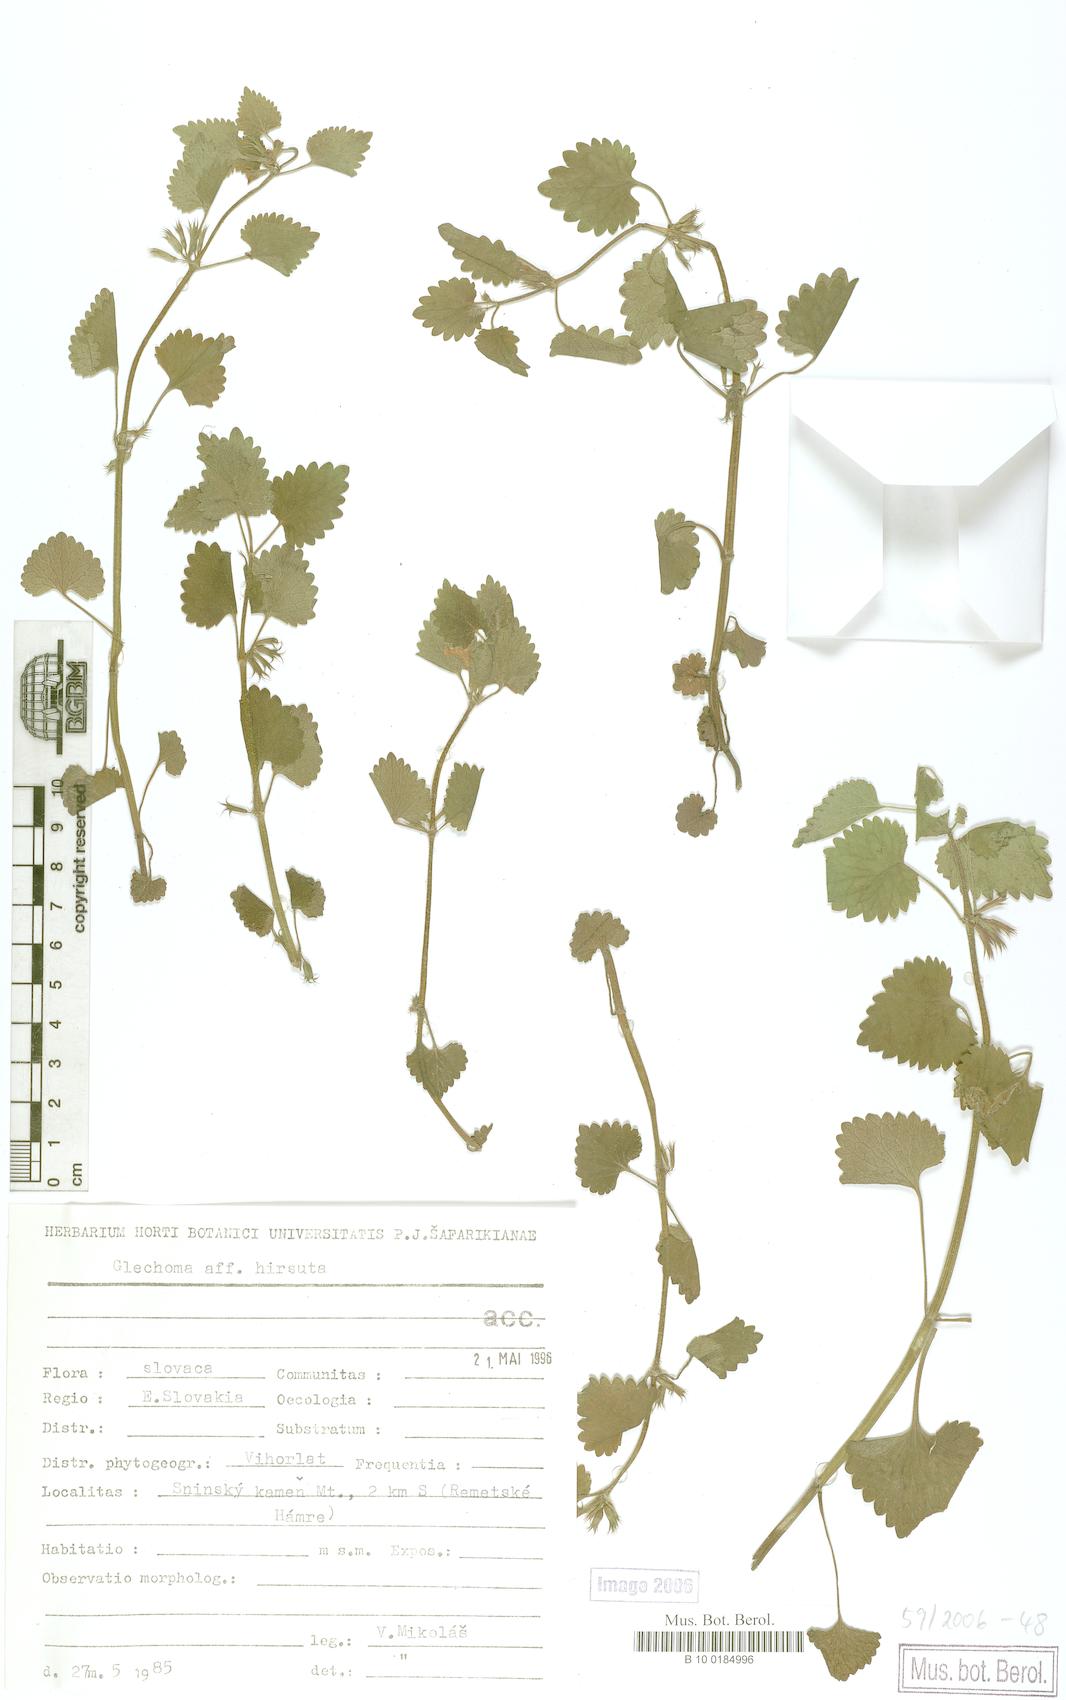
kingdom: Plantae
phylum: Tracheophyta
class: Magnoliopsida
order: Lamiales
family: Lamiaceae
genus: Glechoma
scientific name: Glechoma hirsuta
